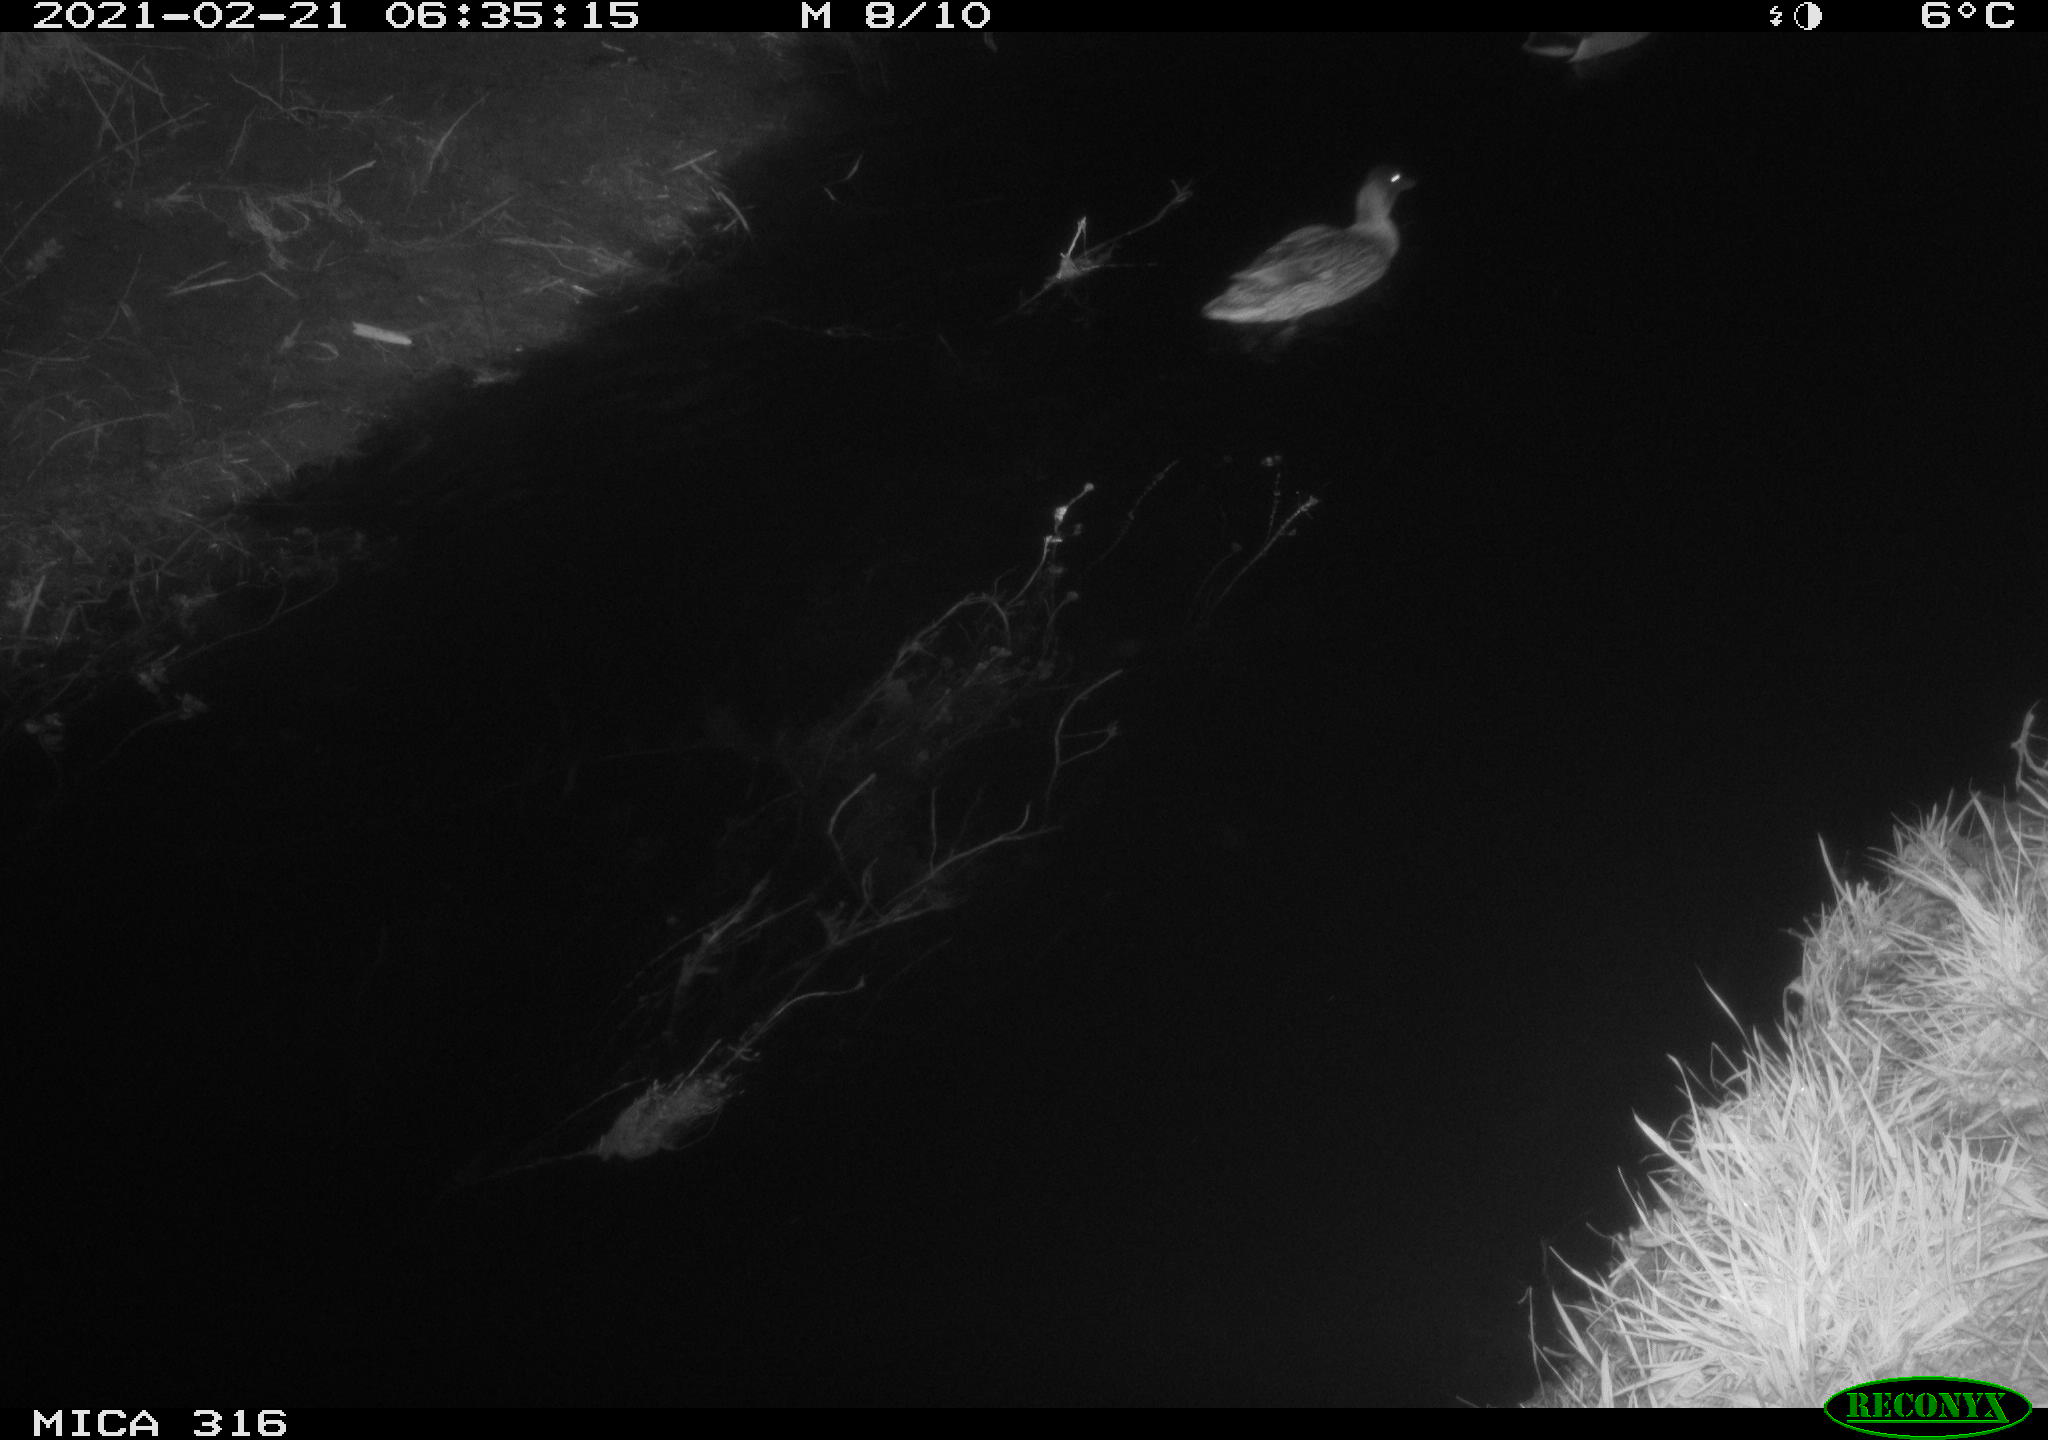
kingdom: Animalia
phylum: Chordata
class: Aves
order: Anseriformes
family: Anatidae
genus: Anas
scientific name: Anas platyrhynchos
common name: Mallard
